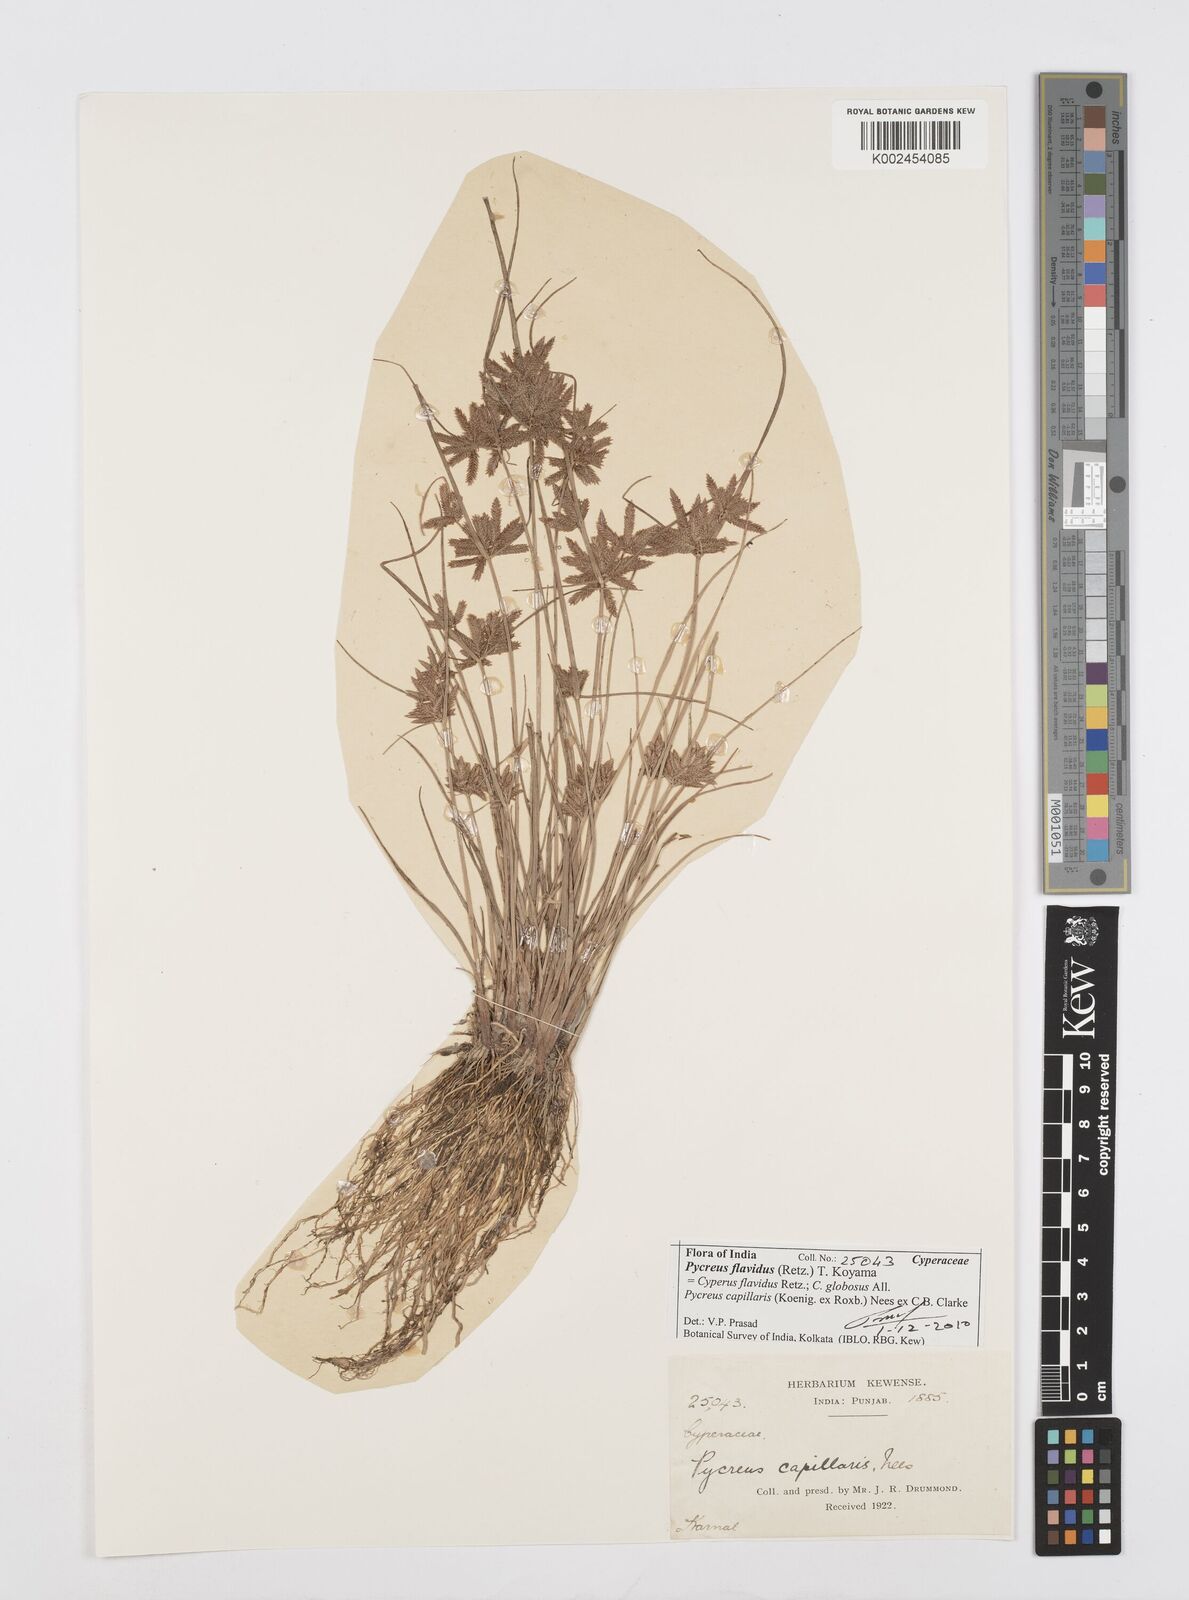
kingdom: Plantae
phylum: Tracheophyta
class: Liliopsida
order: Poales
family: Cyperaceae
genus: Cyperus
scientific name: Cyperus flavidus
